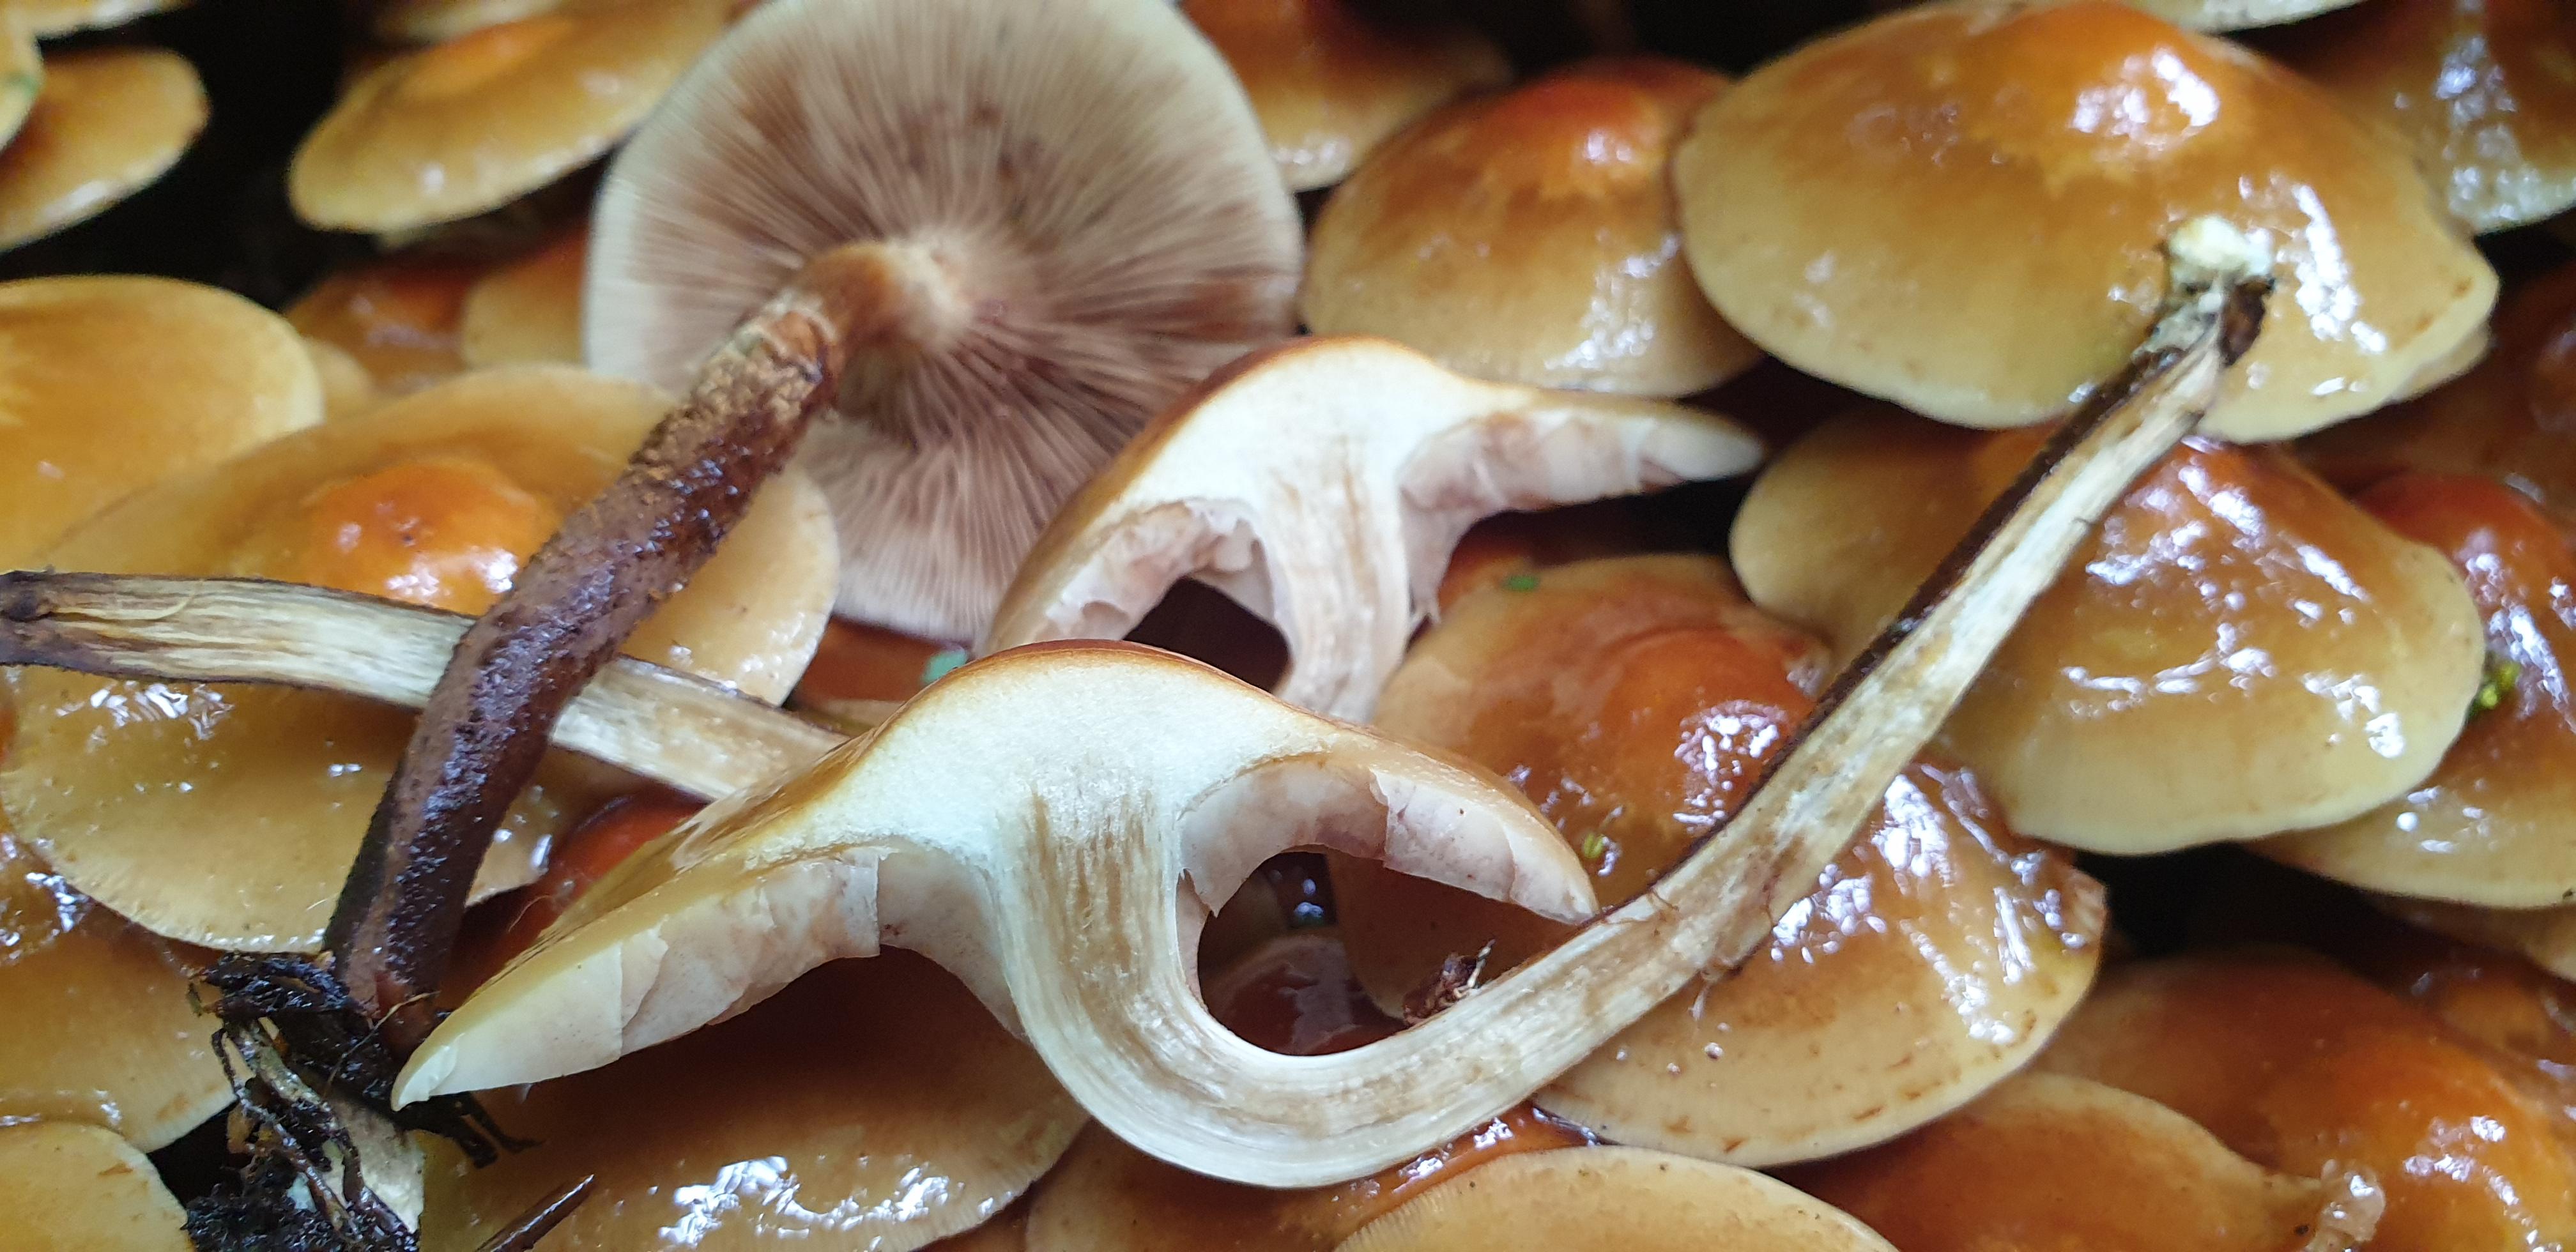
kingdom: Fungi
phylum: Basidiomycota
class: Agaricomycetes
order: Agaricales
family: Strophariaceae
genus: Kuehneromyces
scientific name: Kuehneromyces mutabilis
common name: foranderlig skælhat
